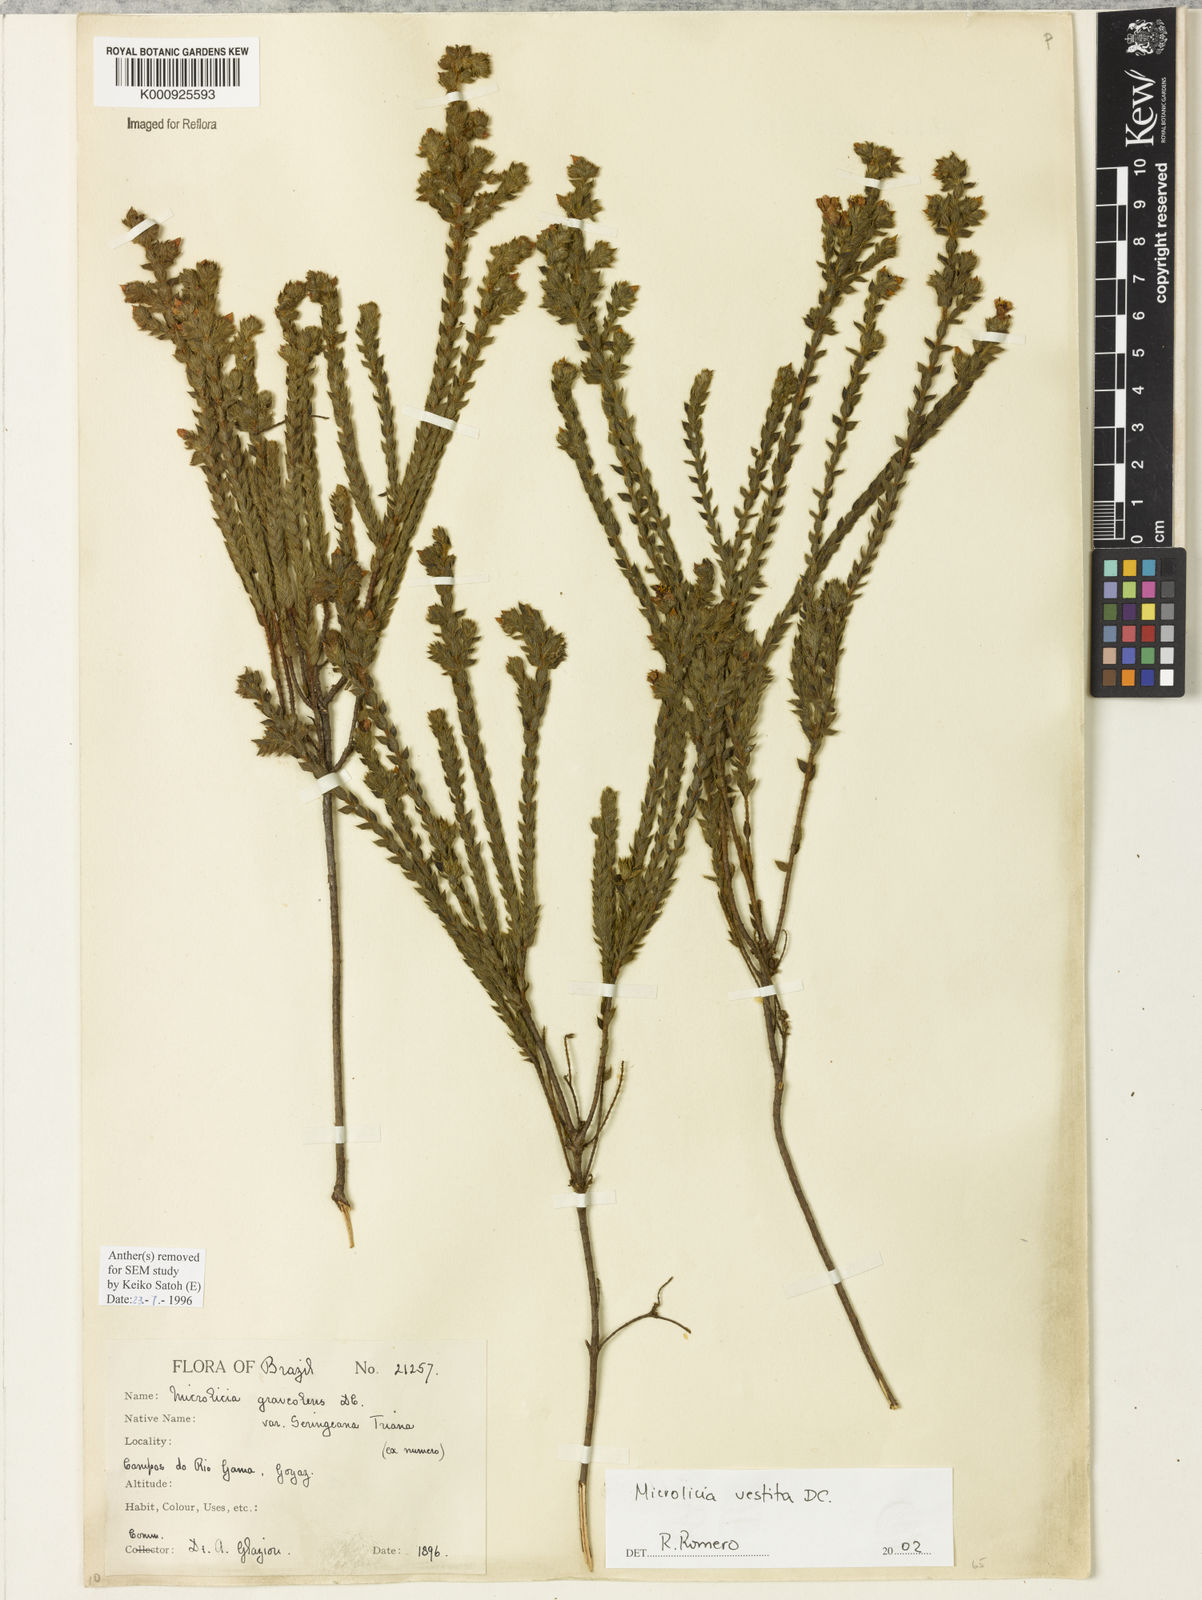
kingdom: Plantae
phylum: Tracheophyta
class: Magnoliopsida
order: Myrtales
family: Melastomataceae
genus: Microlicia
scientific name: Microlicia vestita
